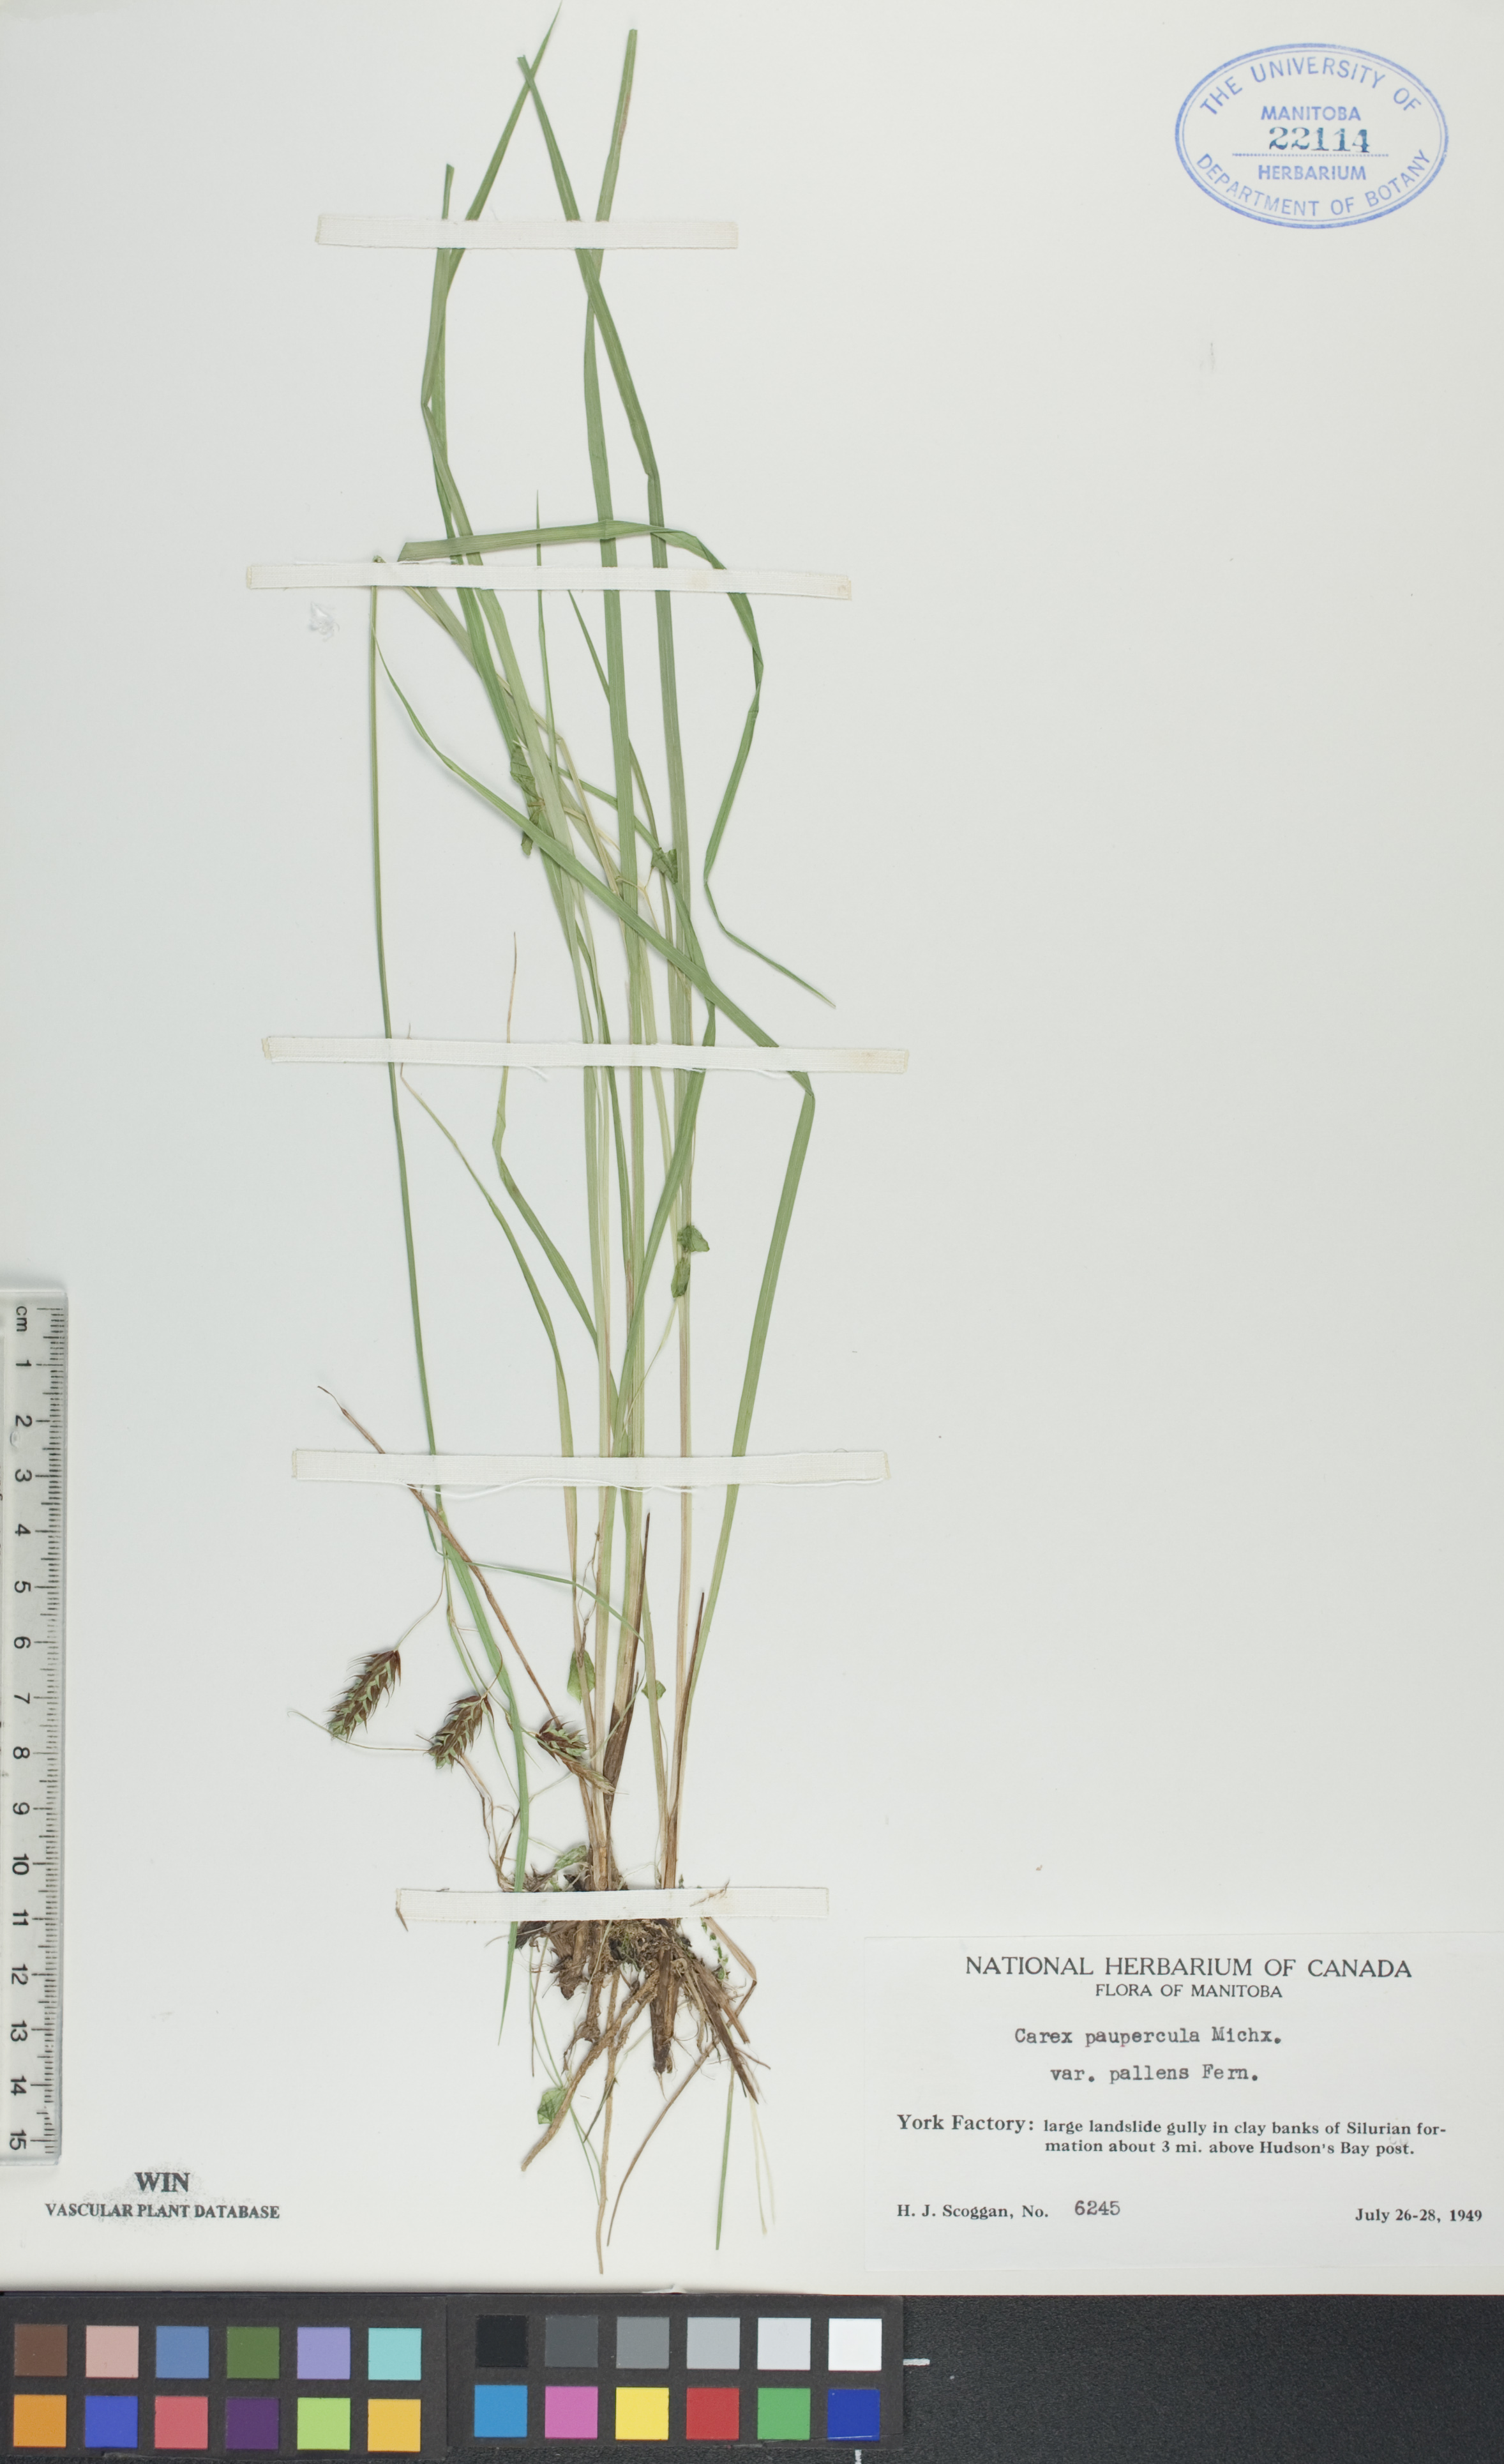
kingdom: Plantae
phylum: Tracheophyta
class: Liliopsida
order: Poales
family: Cyperaceae
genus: Carex
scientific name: Carex magellanica
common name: Bog sedge
